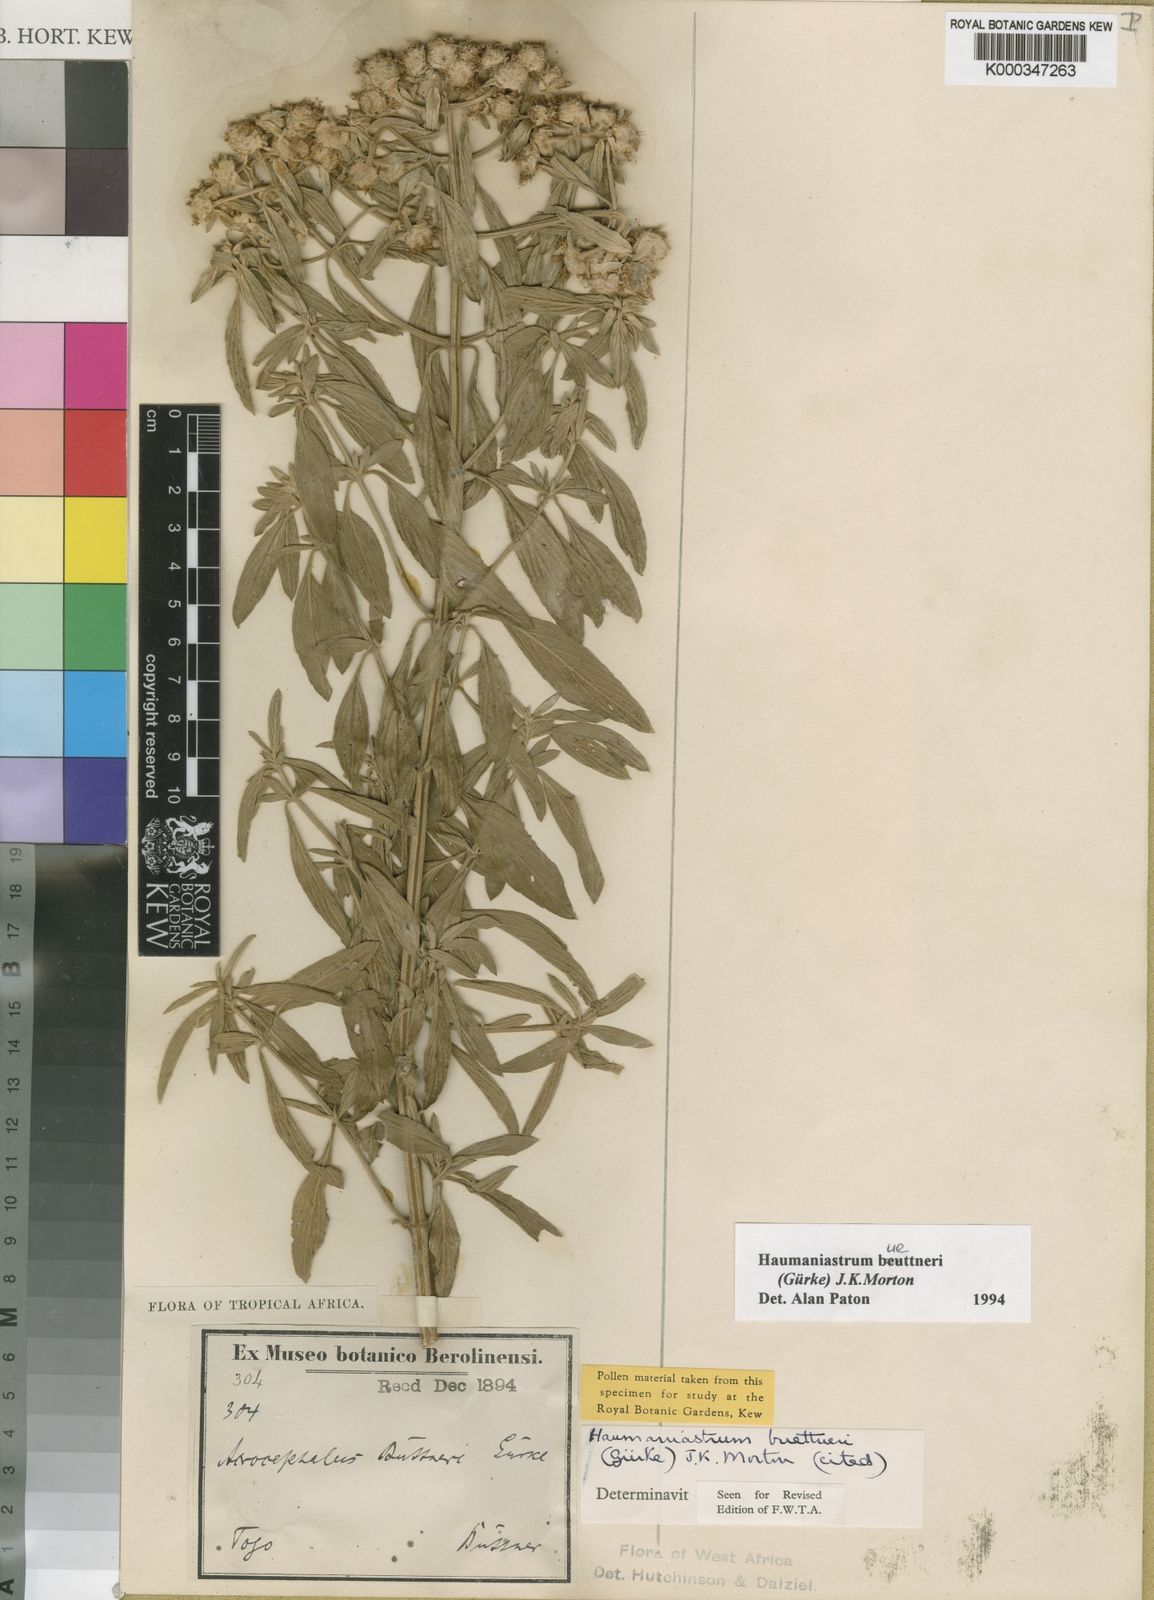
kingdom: Plantae
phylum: Tracheophyta
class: Magnoliopsida
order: Lamiales
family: Lamiaceae
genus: Haumaniastrum
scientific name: Haumaniastrum
